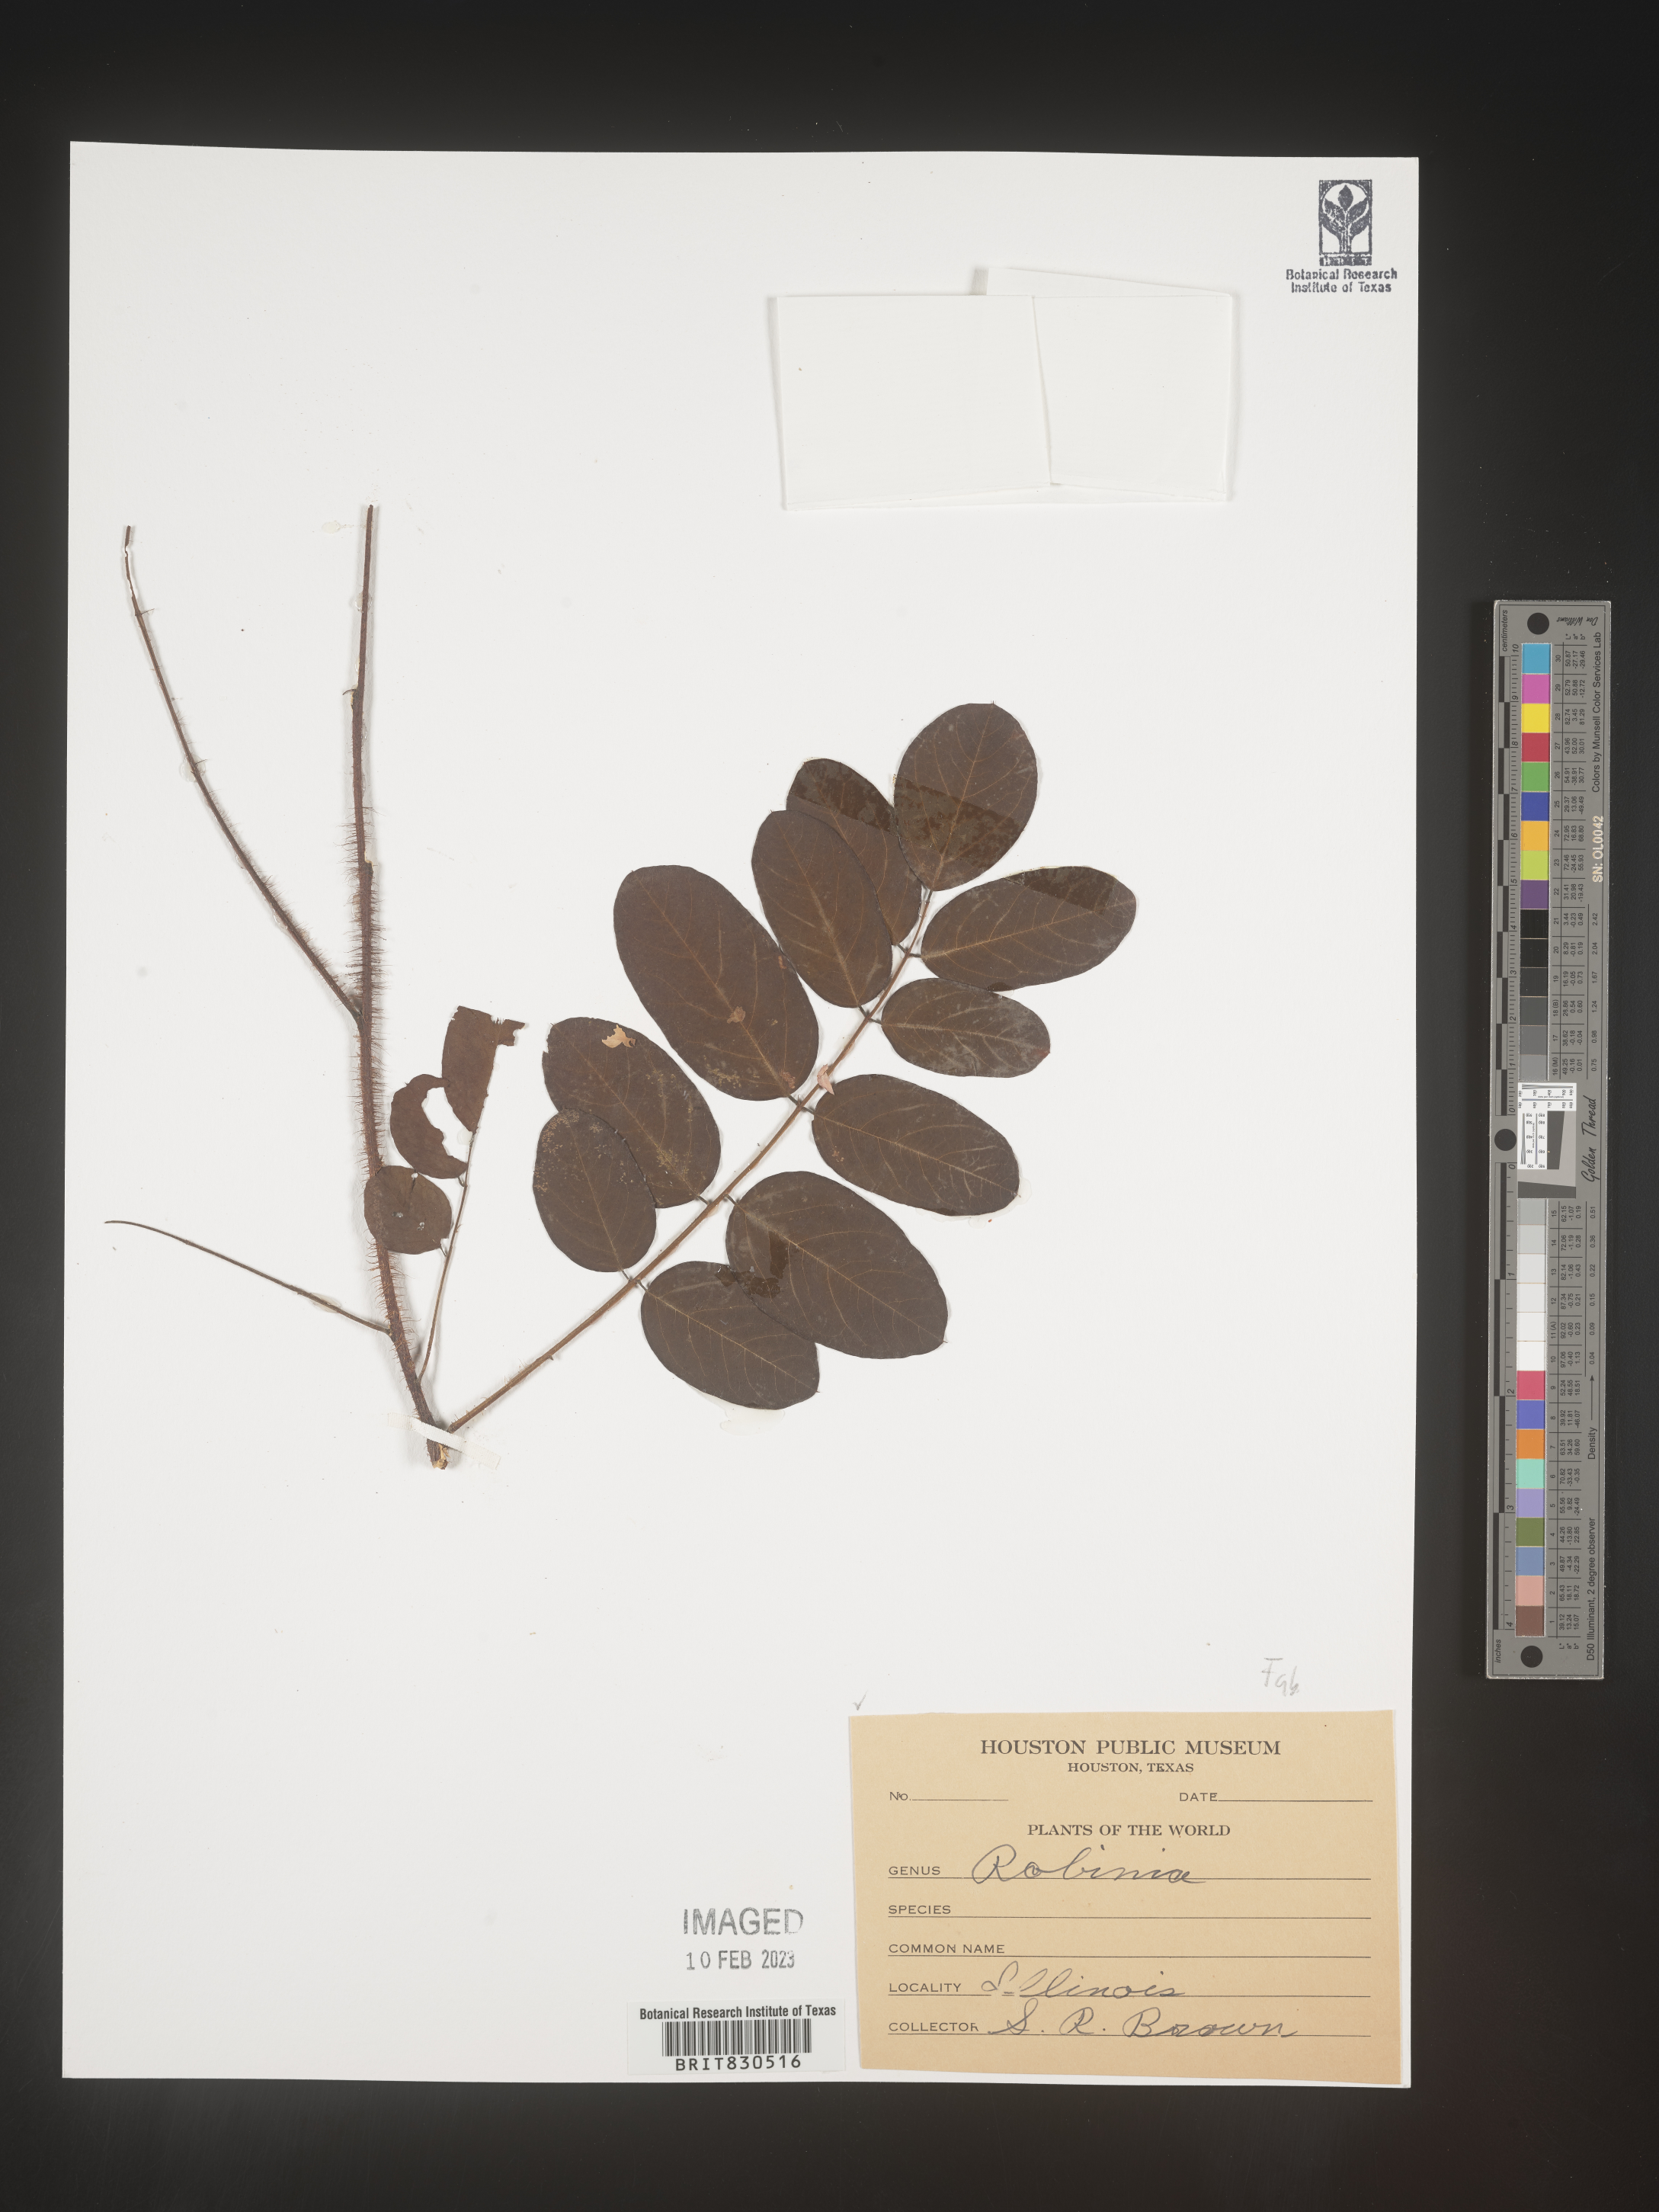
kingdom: Plantae
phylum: Tracheophyta
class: Magnoliopsida
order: Fabales
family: Fabaceae
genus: Robinia
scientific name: Robinia
